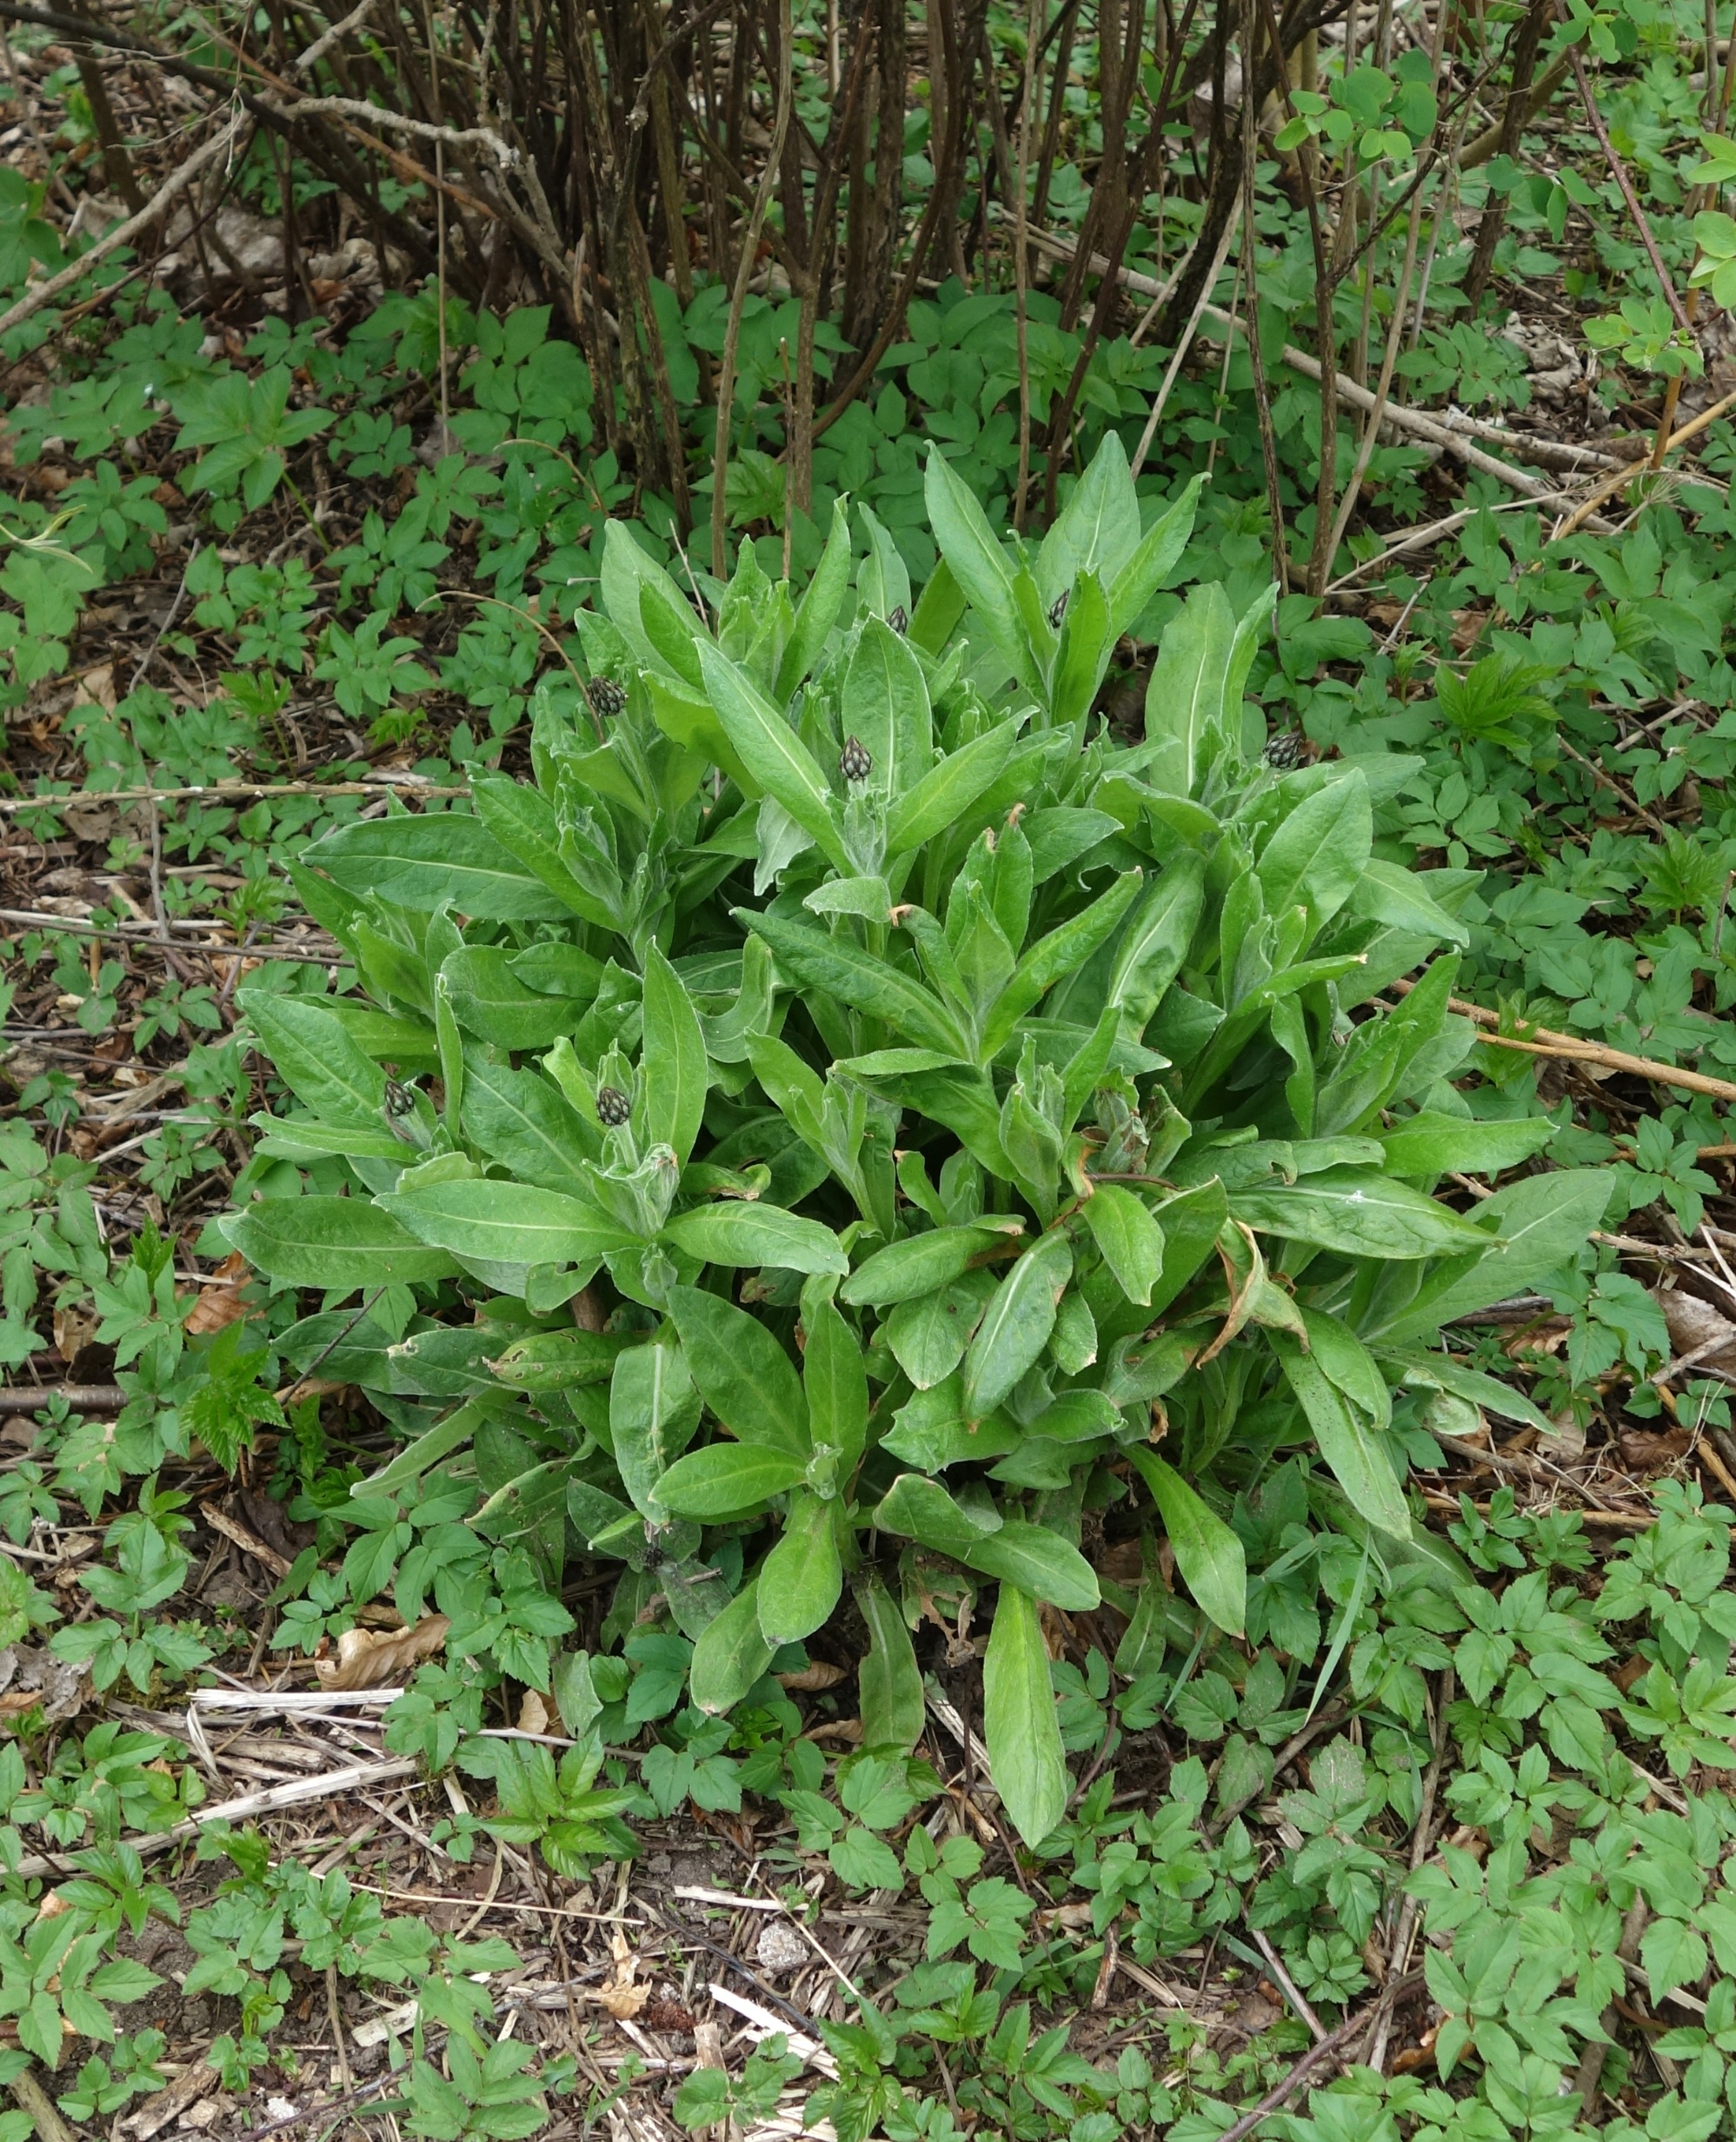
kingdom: Plantae
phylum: Tracheophyta
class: Magnoliopsida
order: Asterales
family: Asteraceae
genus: Centaurea
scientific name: Centaurea montana
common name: Bjerg-knopurt
